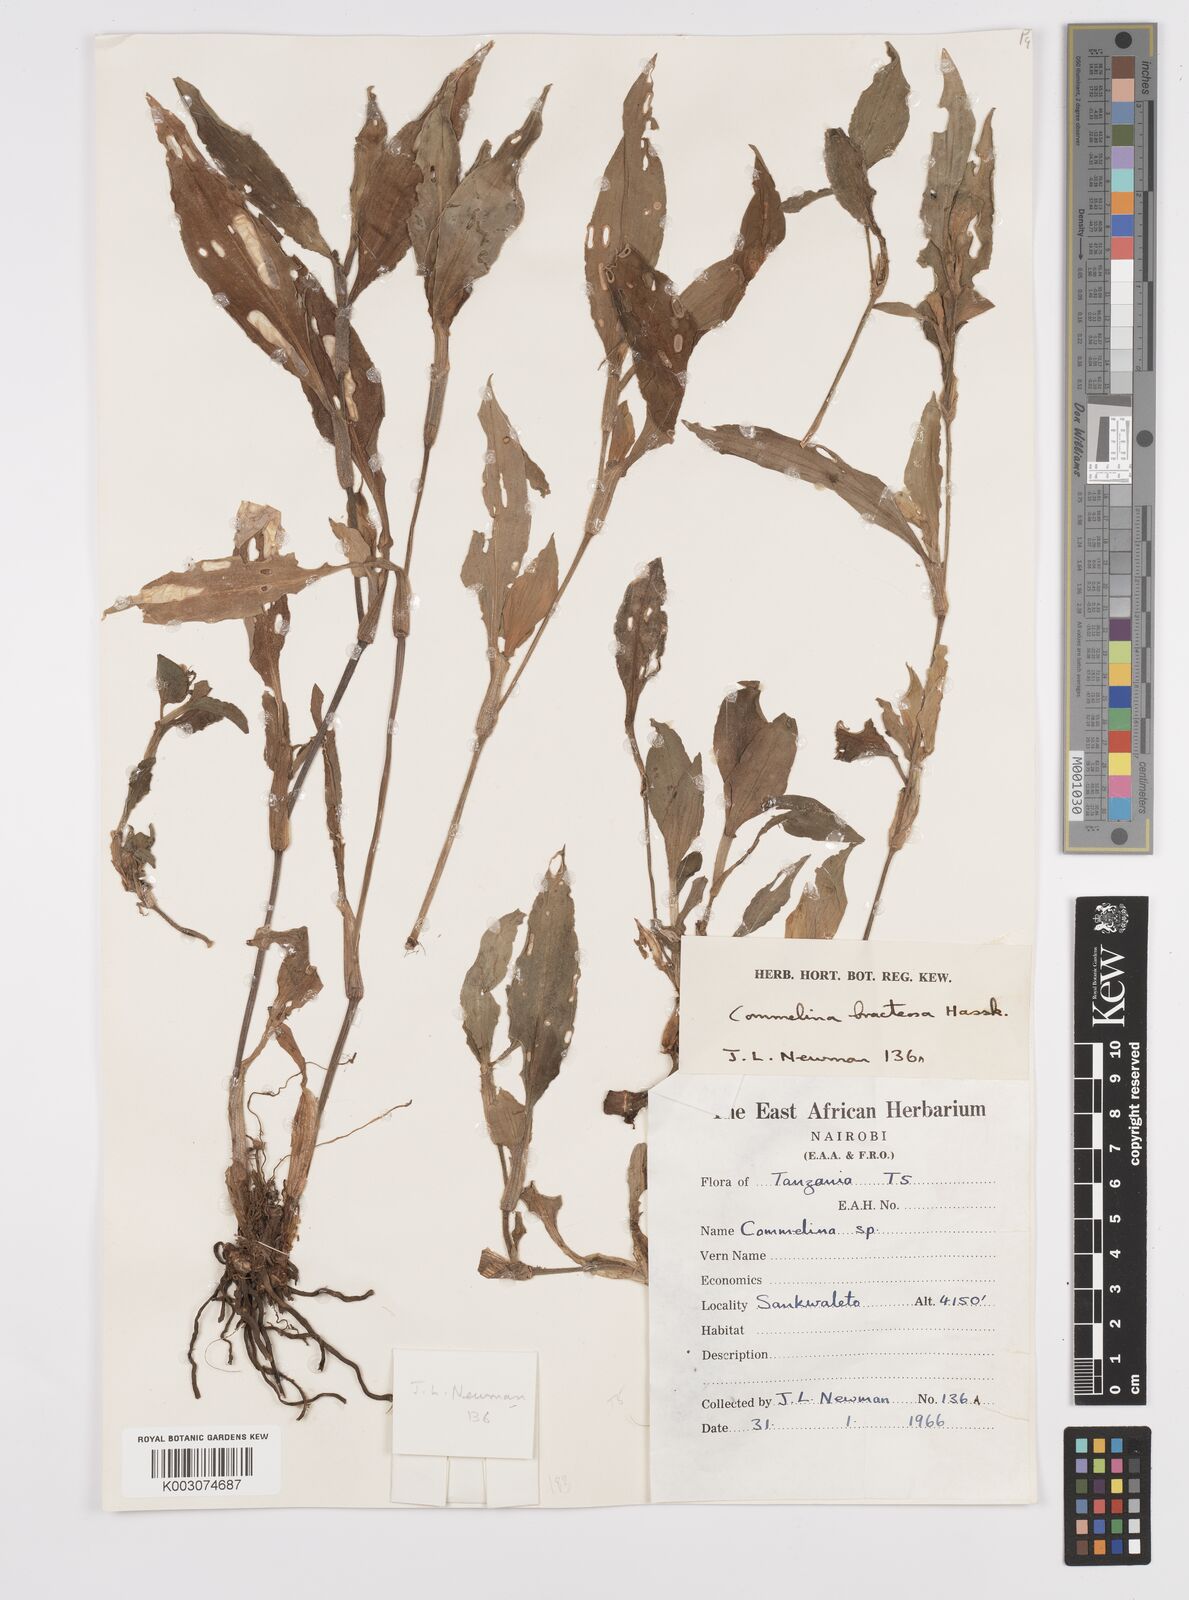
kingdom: Plantae
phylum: Tracheophyta
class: Liliopsida
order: Commelinales
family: Commelinaceae
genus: Commelina
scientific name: Commelina bracteosa
